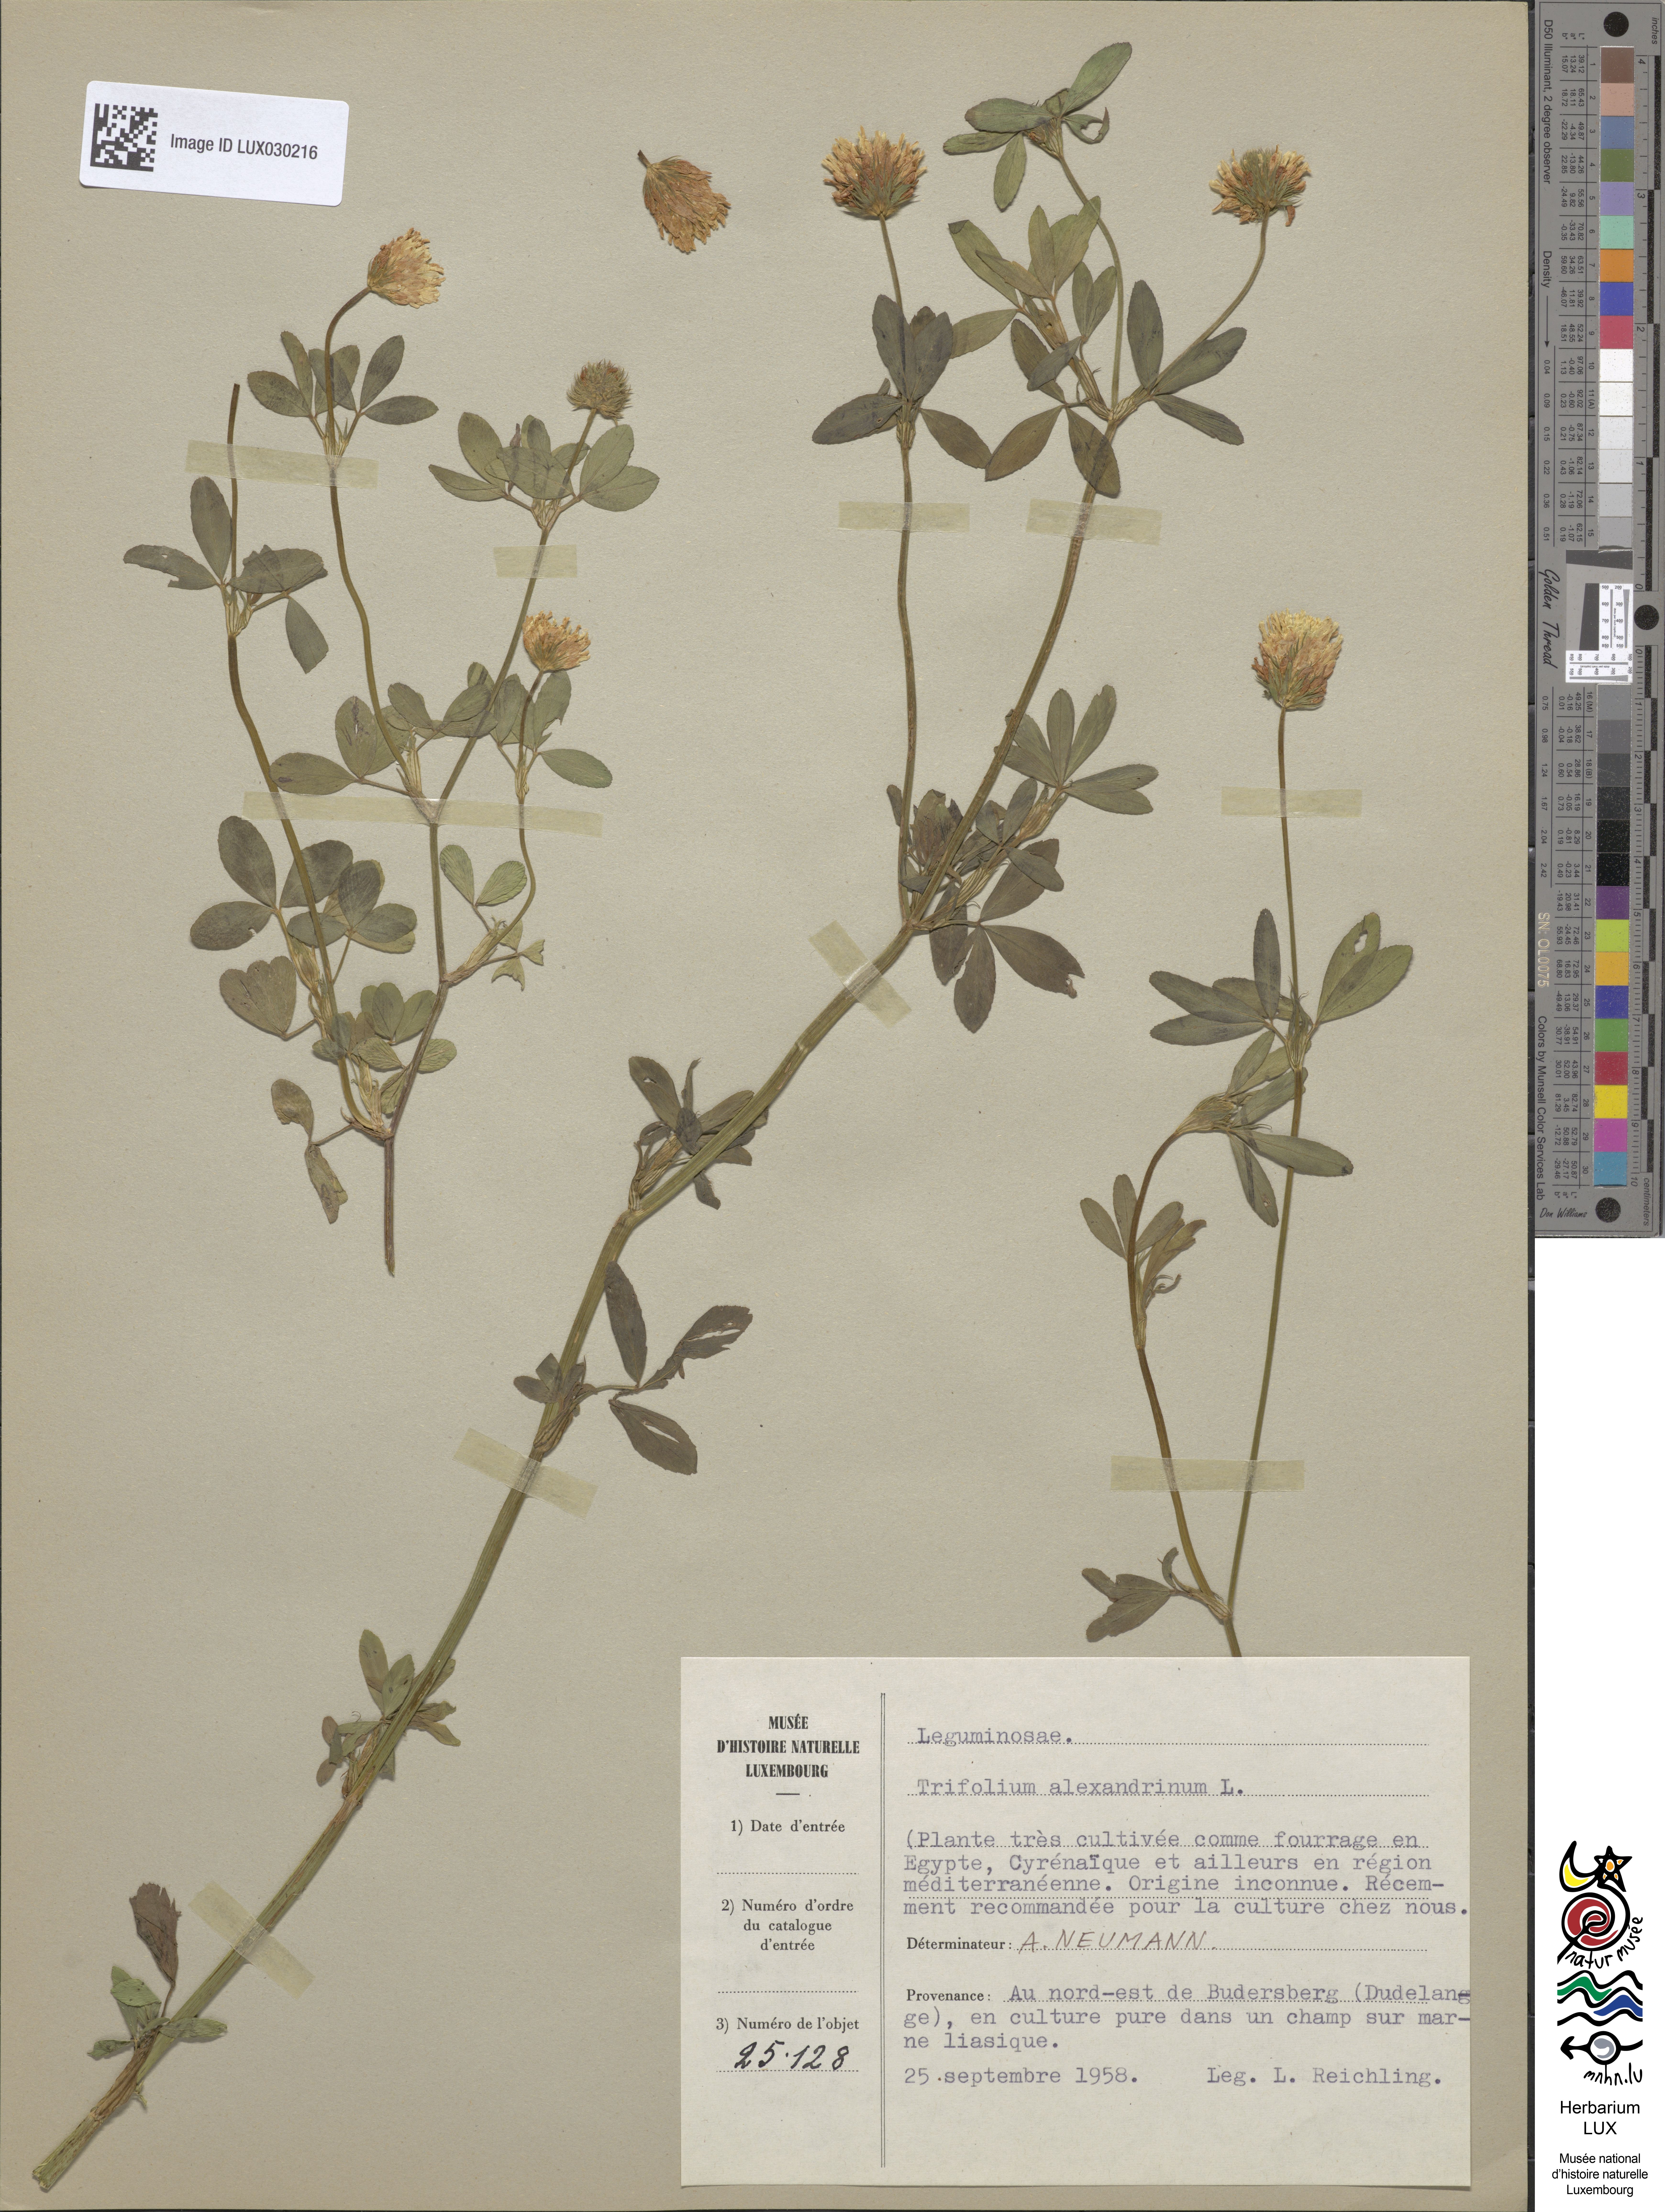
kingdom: Plantae
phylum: Tracheophyta
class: Magnoliopsida
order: Fabales
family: Fabaceae
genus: Trifolium
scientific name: Trifolium alexandrinum
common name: Egyptian clover
